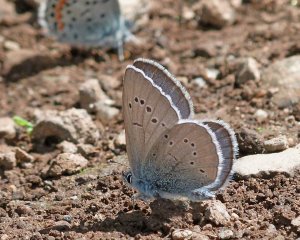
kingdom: Animalia
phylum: Arthropoda
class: Insecta
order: Lepidoptera
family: Lycaenidae
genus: Glaucopsyche
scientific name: Glaucopsyche lygdamus
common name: Silvery Blue
